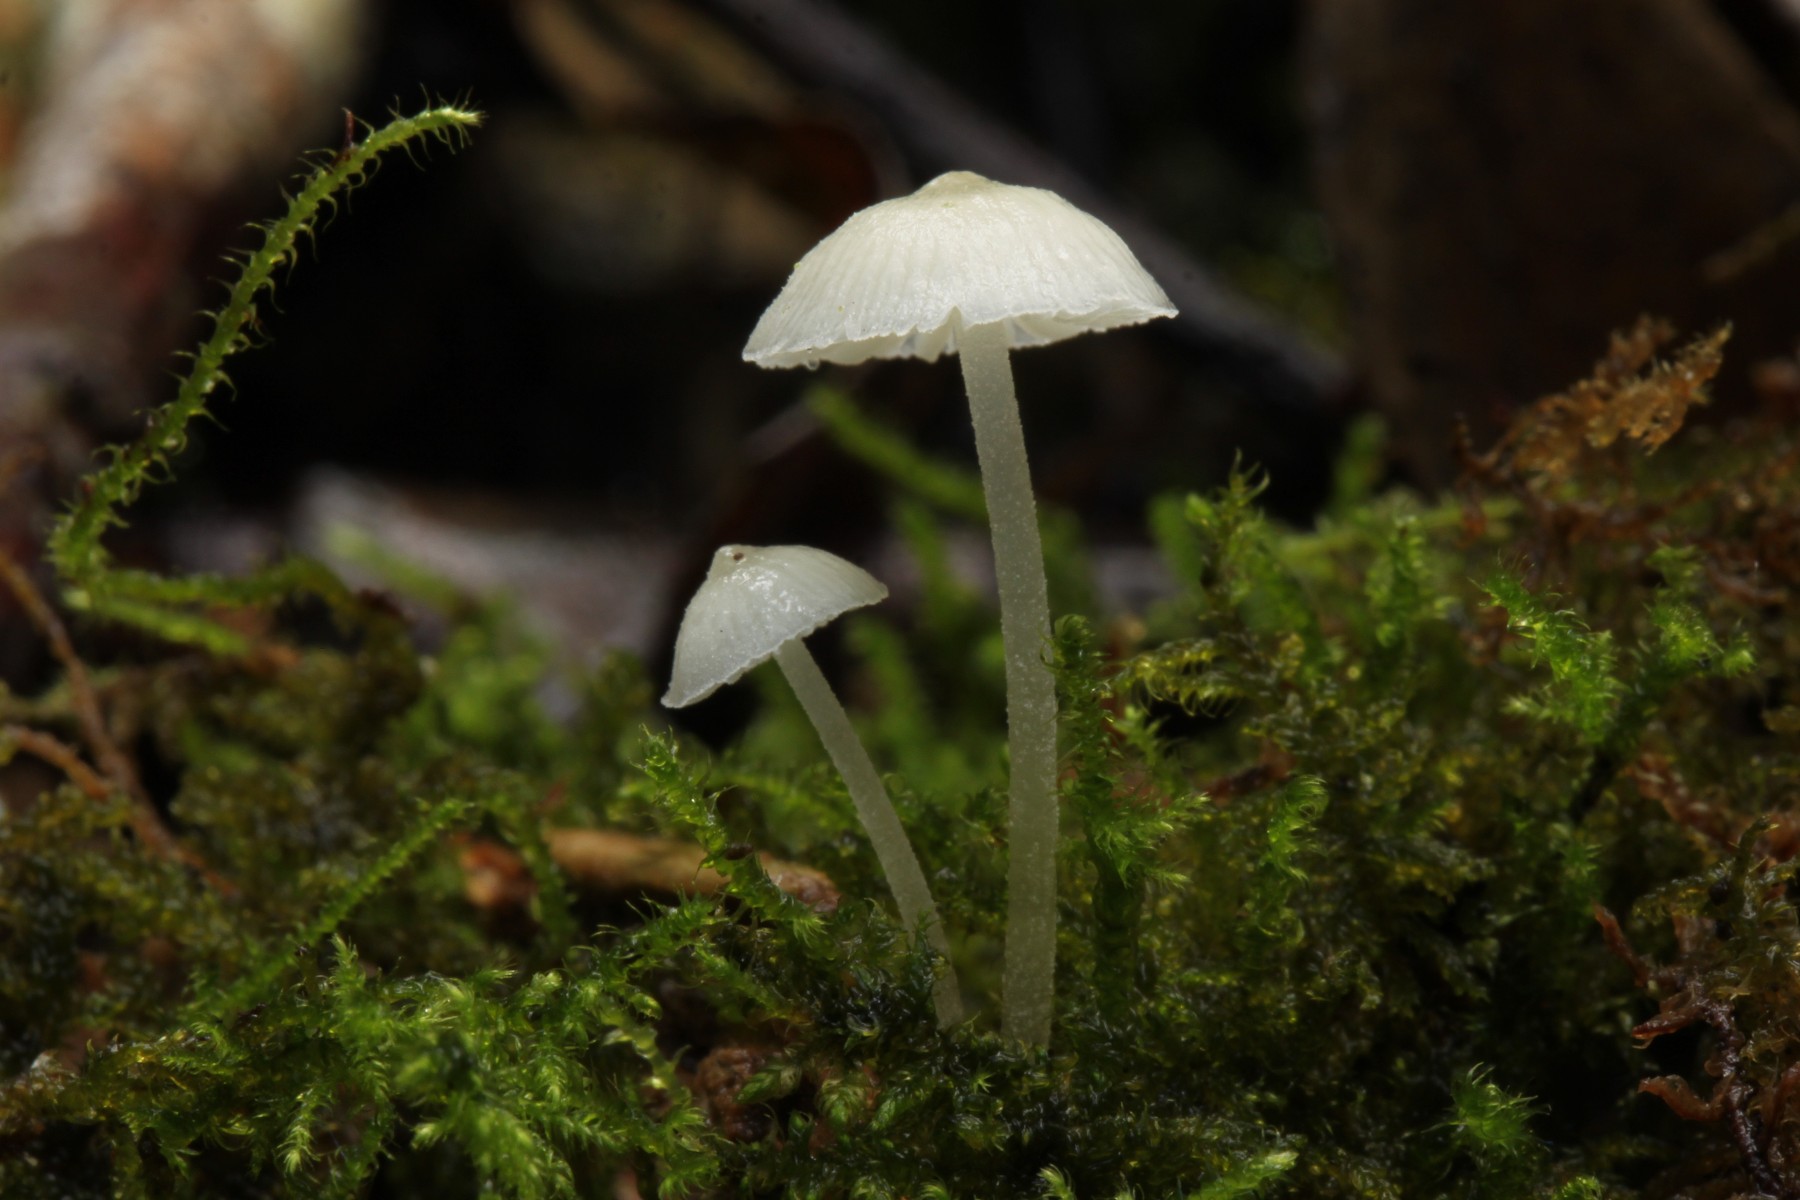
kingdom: Fungi
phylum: Basidiomycota
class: Agaricomycetes
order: Agaricales
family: Porotheleaceae
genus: Phloeomana
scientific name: Phloeomana minutula
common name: bleg huesvamp
